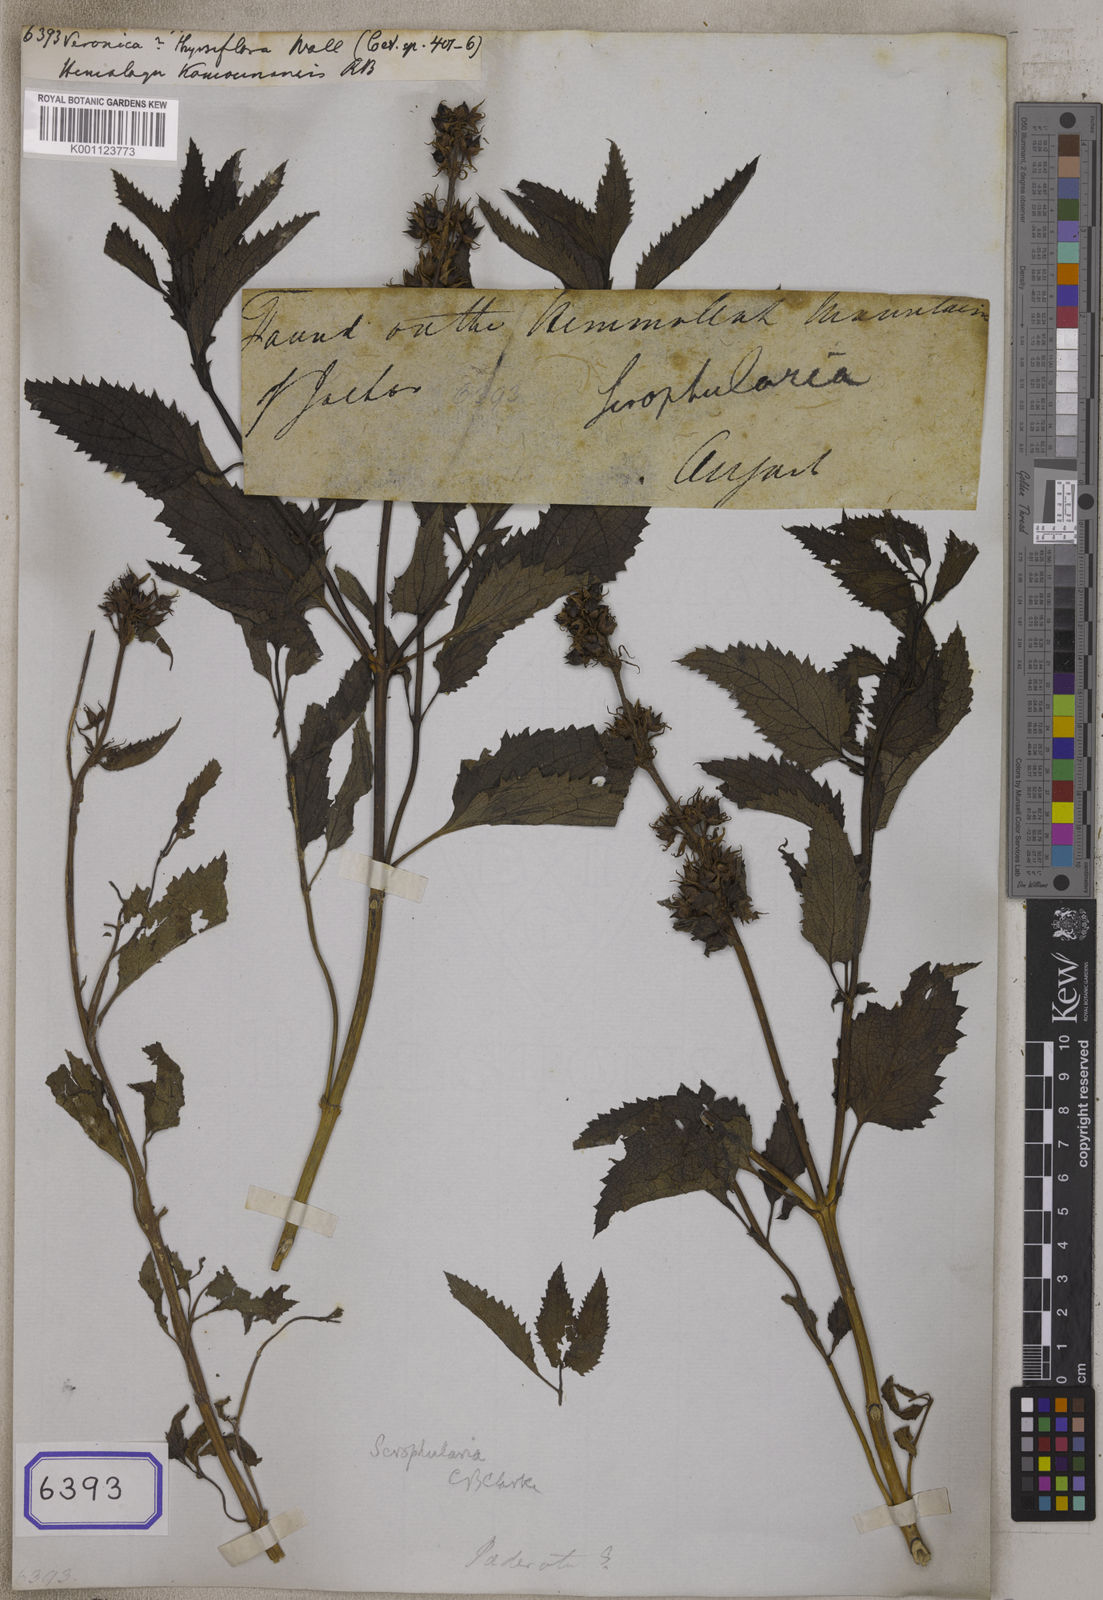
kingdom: Plantae
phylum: Tracheophyta
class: Magnoliopsida
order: Lamiales
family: Scrophulariaceae
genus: Scrophularia
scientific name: Scrophularia calycina
